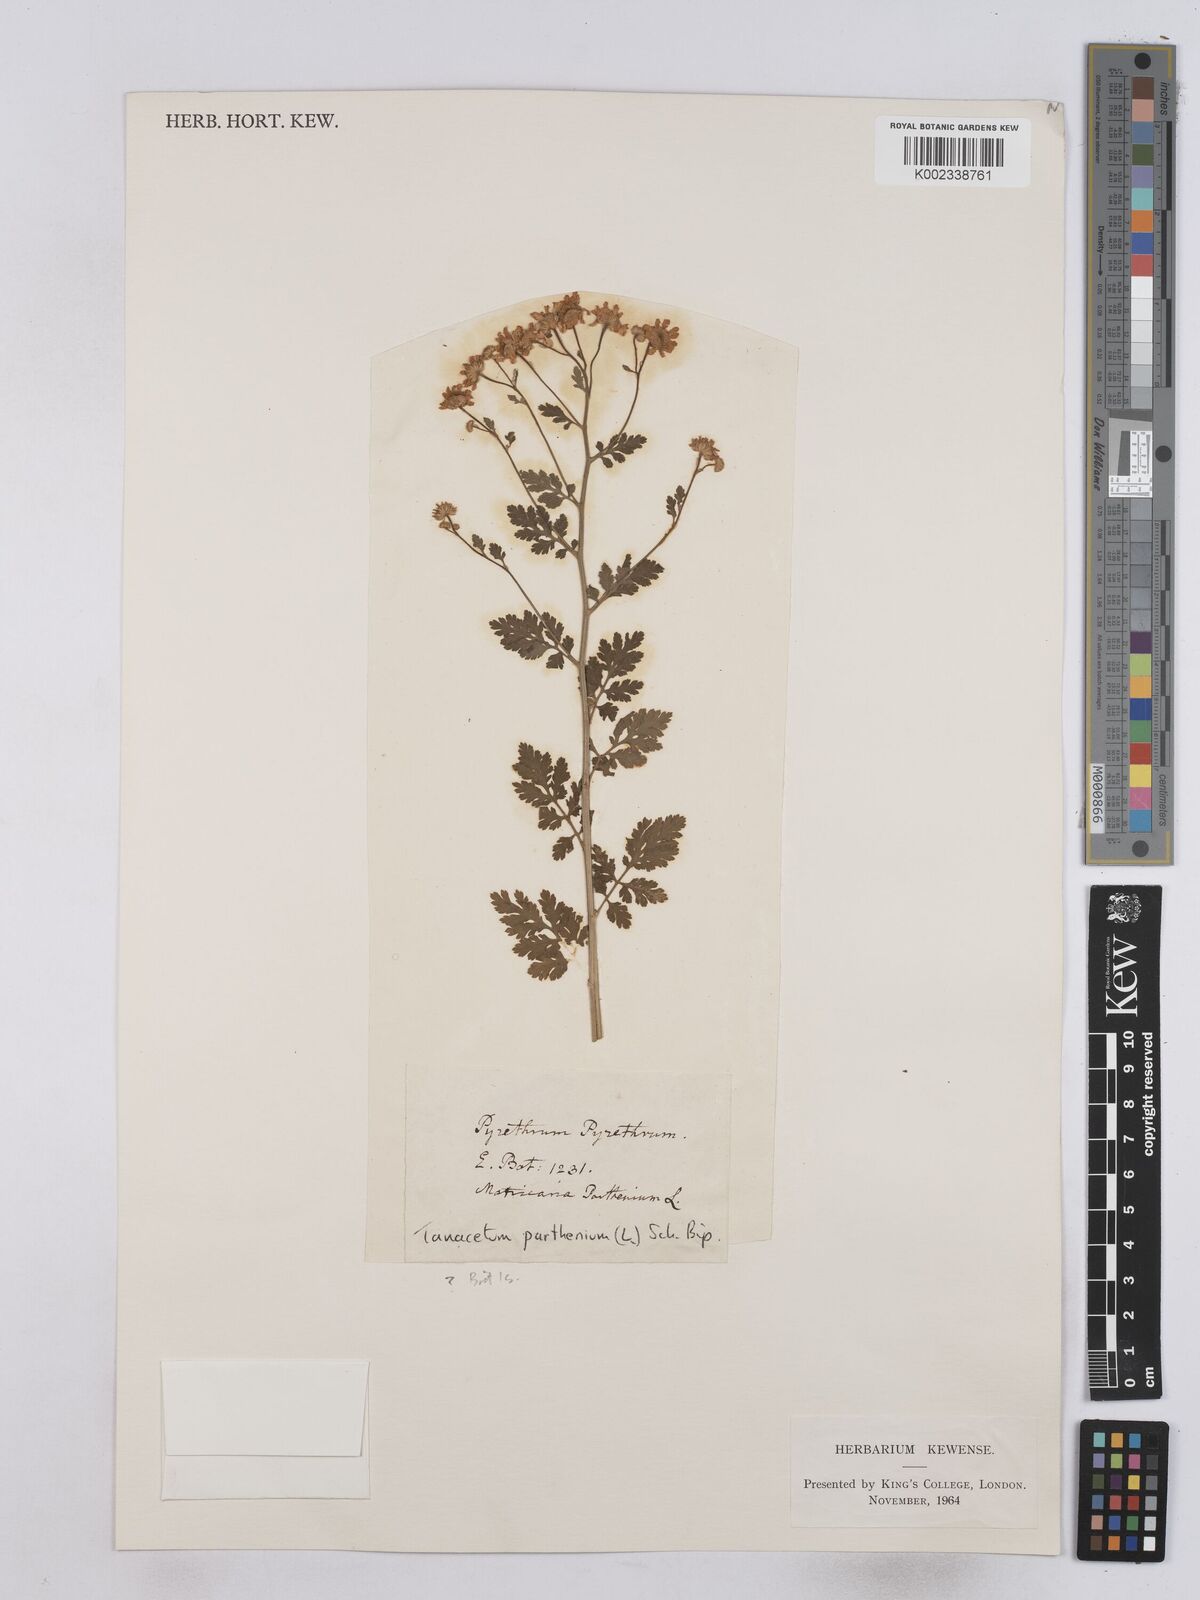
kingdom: Plantae
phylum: Tracheophyta
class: Magnoliopsida
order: Asterales
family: Asteraceae
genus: Tanacetum
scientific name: Tanacetum parthenium
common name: Feverfew
